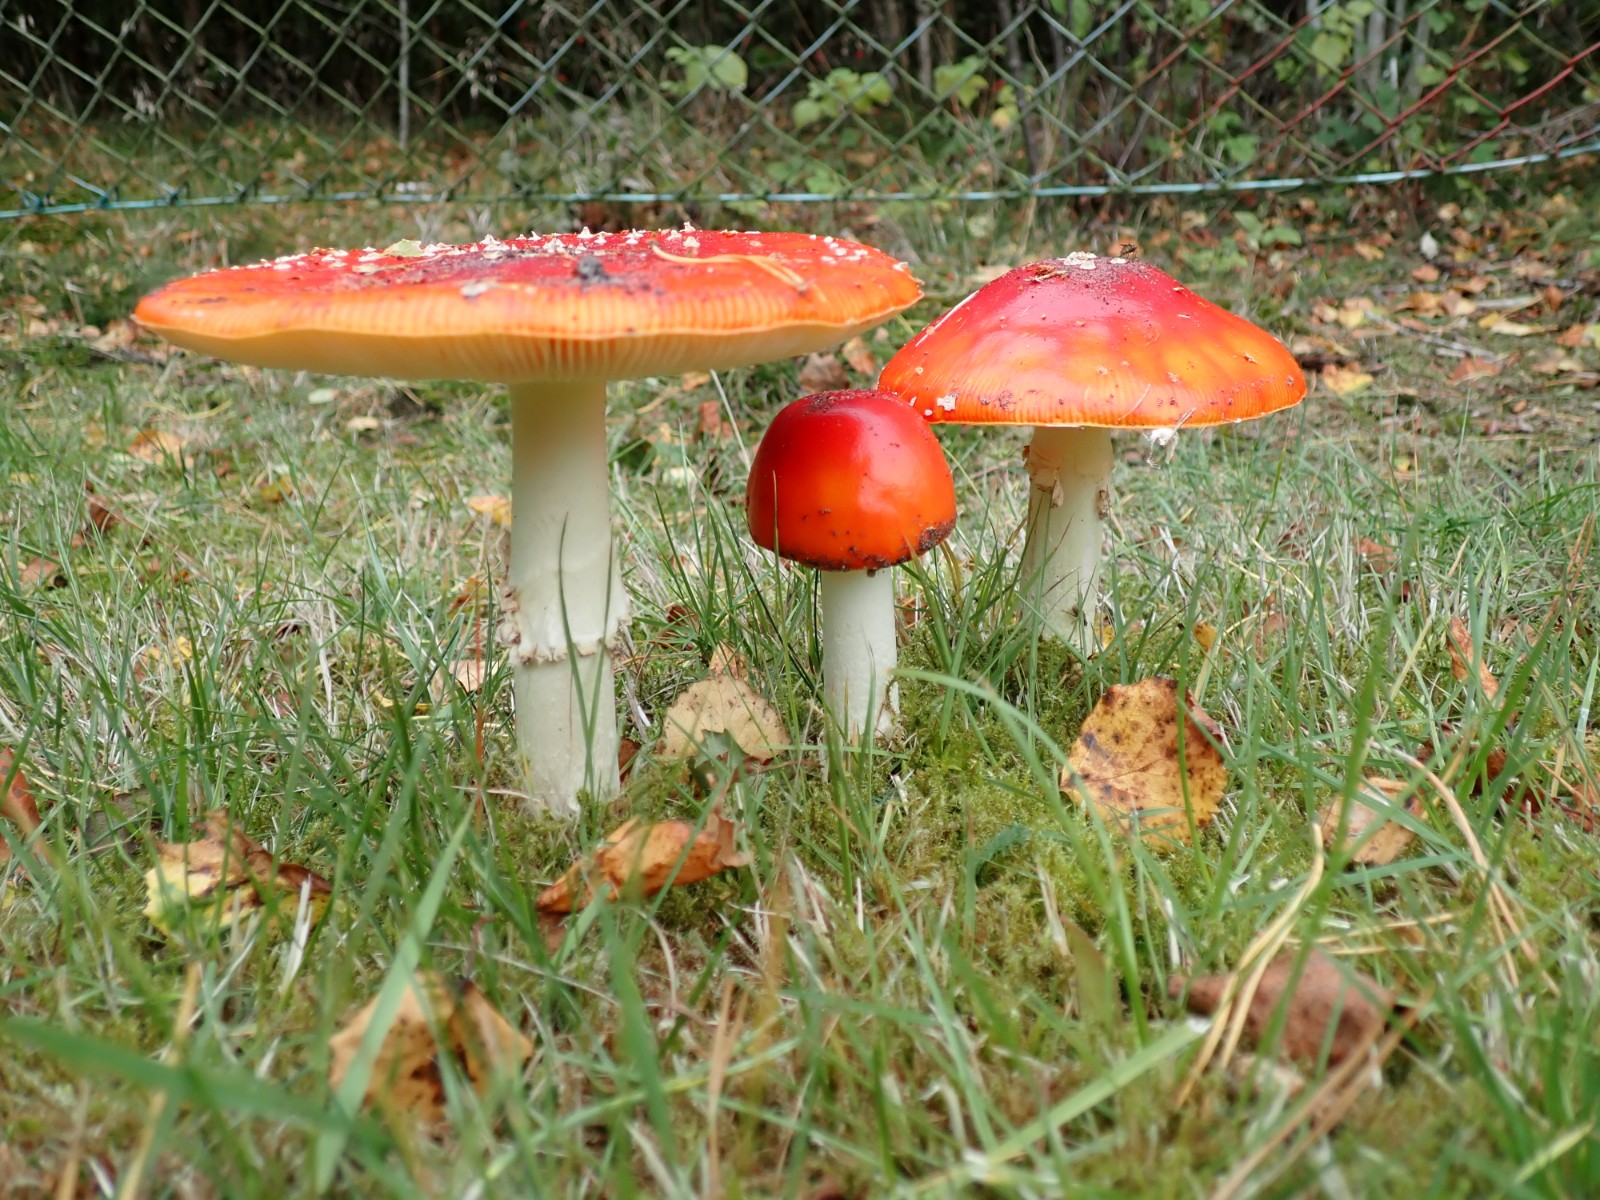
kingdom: Fungi
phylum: Basidiomycota
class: Agaricomycetes
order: Agaricales
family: Amanitaceae
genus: Amanita
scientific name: Amanita muscaria
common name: rød fluesvamp
